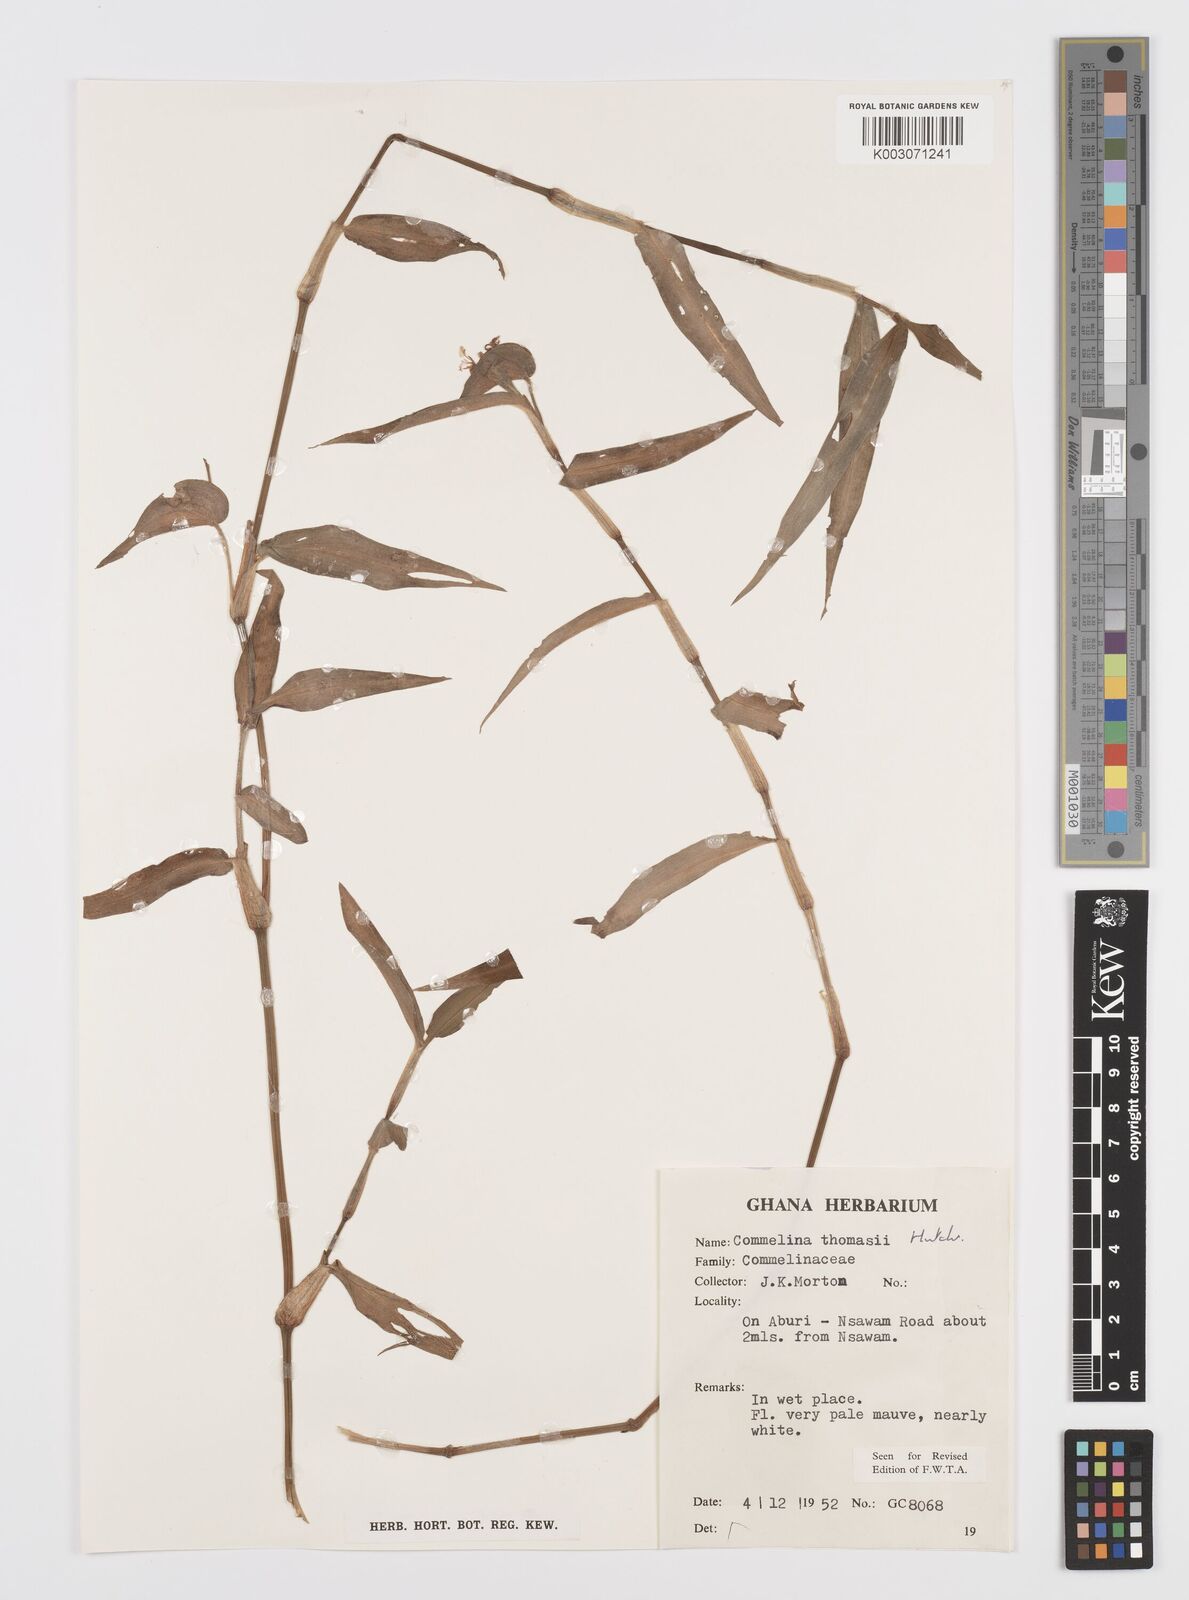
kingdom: Plantae
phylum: Tracheophyta
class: Liliopsida
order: Commelinales
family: Commelinaceae
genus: Commelina
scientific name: Commelina acutispatha
